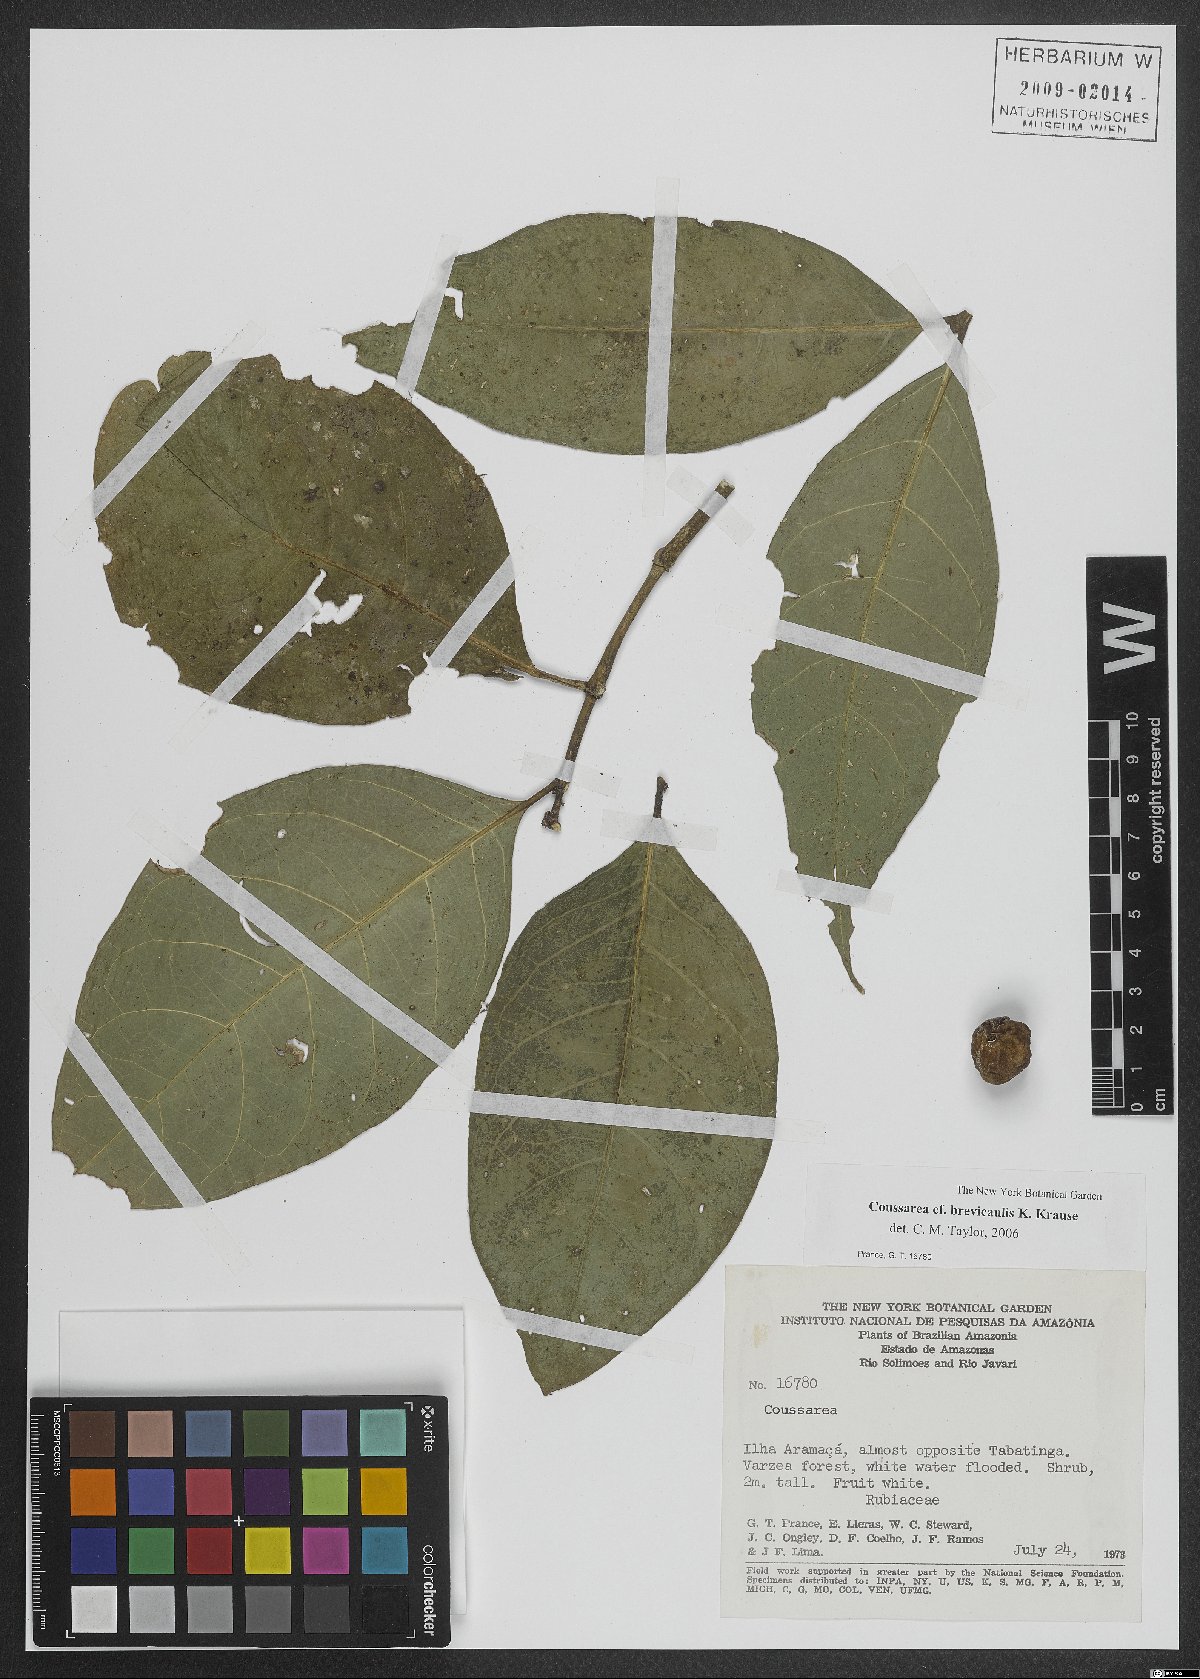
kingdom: Plantae
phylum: Tracheophyta
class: Magnoliopsida
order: Gentianales
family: Rubiaceae
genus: Coussarea
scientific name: Coussarea brevicaulis
